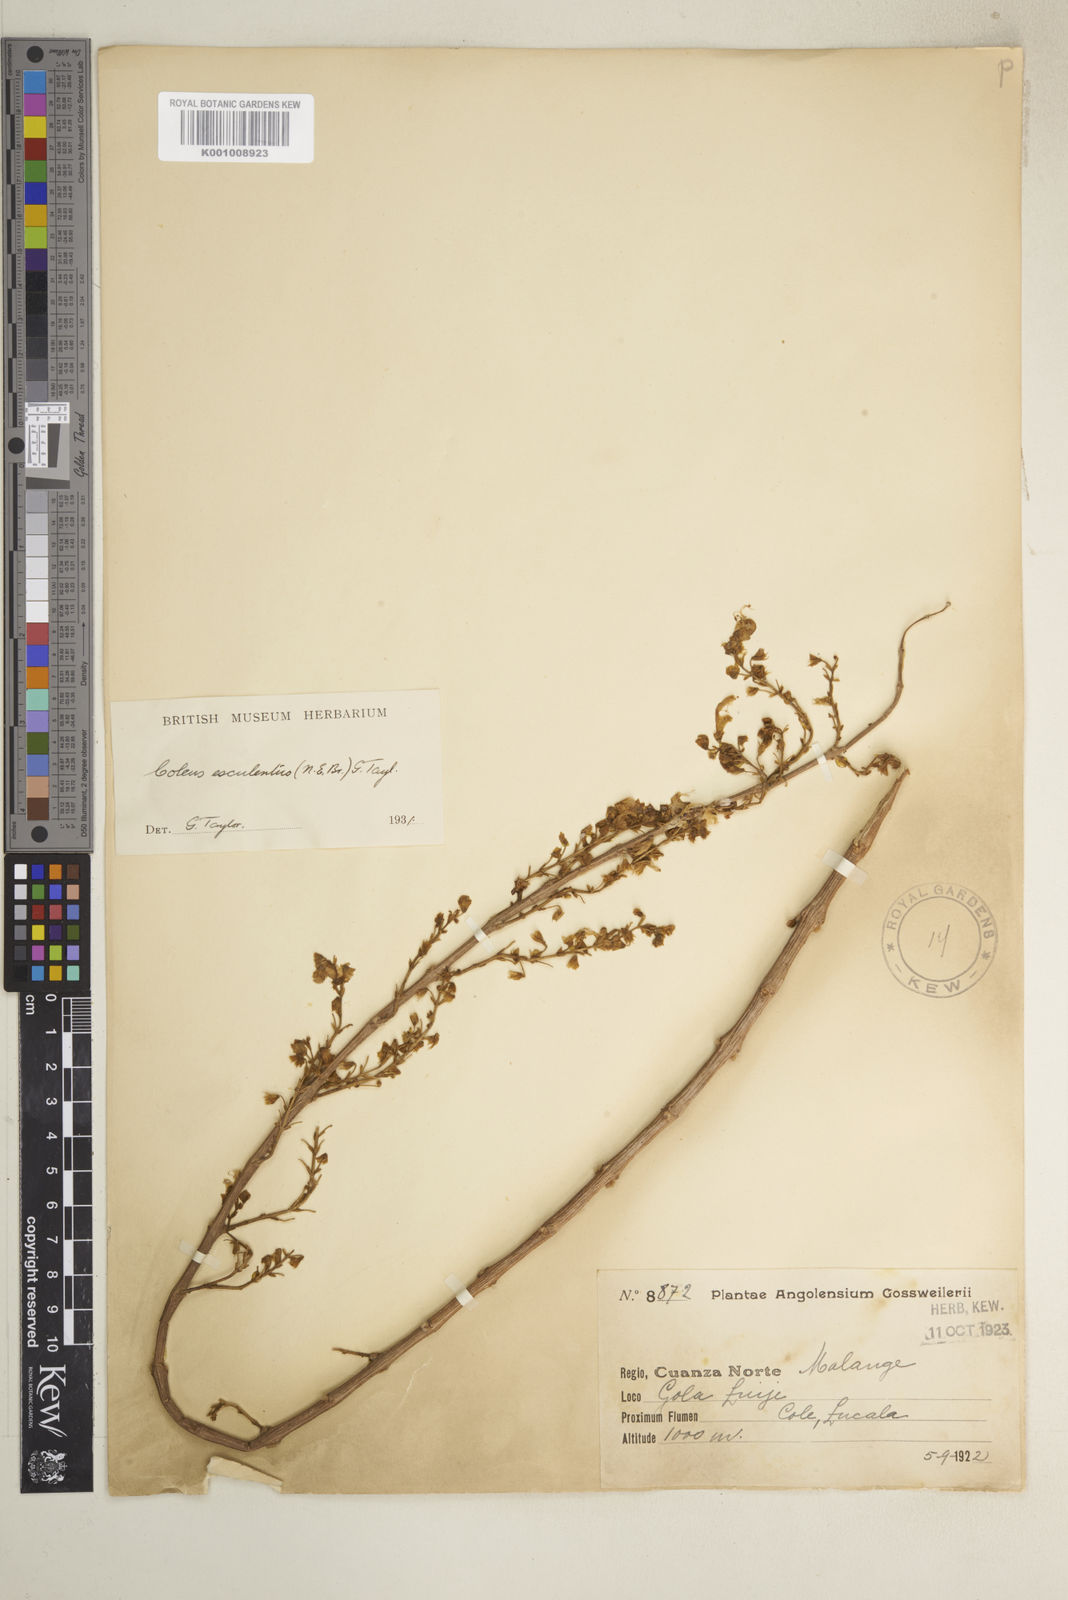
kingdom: Plantae
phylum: Tracheophyta
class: Magnoliopsida
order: Lamiales
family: Lamiaceae
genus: Coleus
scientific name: Coleus esculentus
